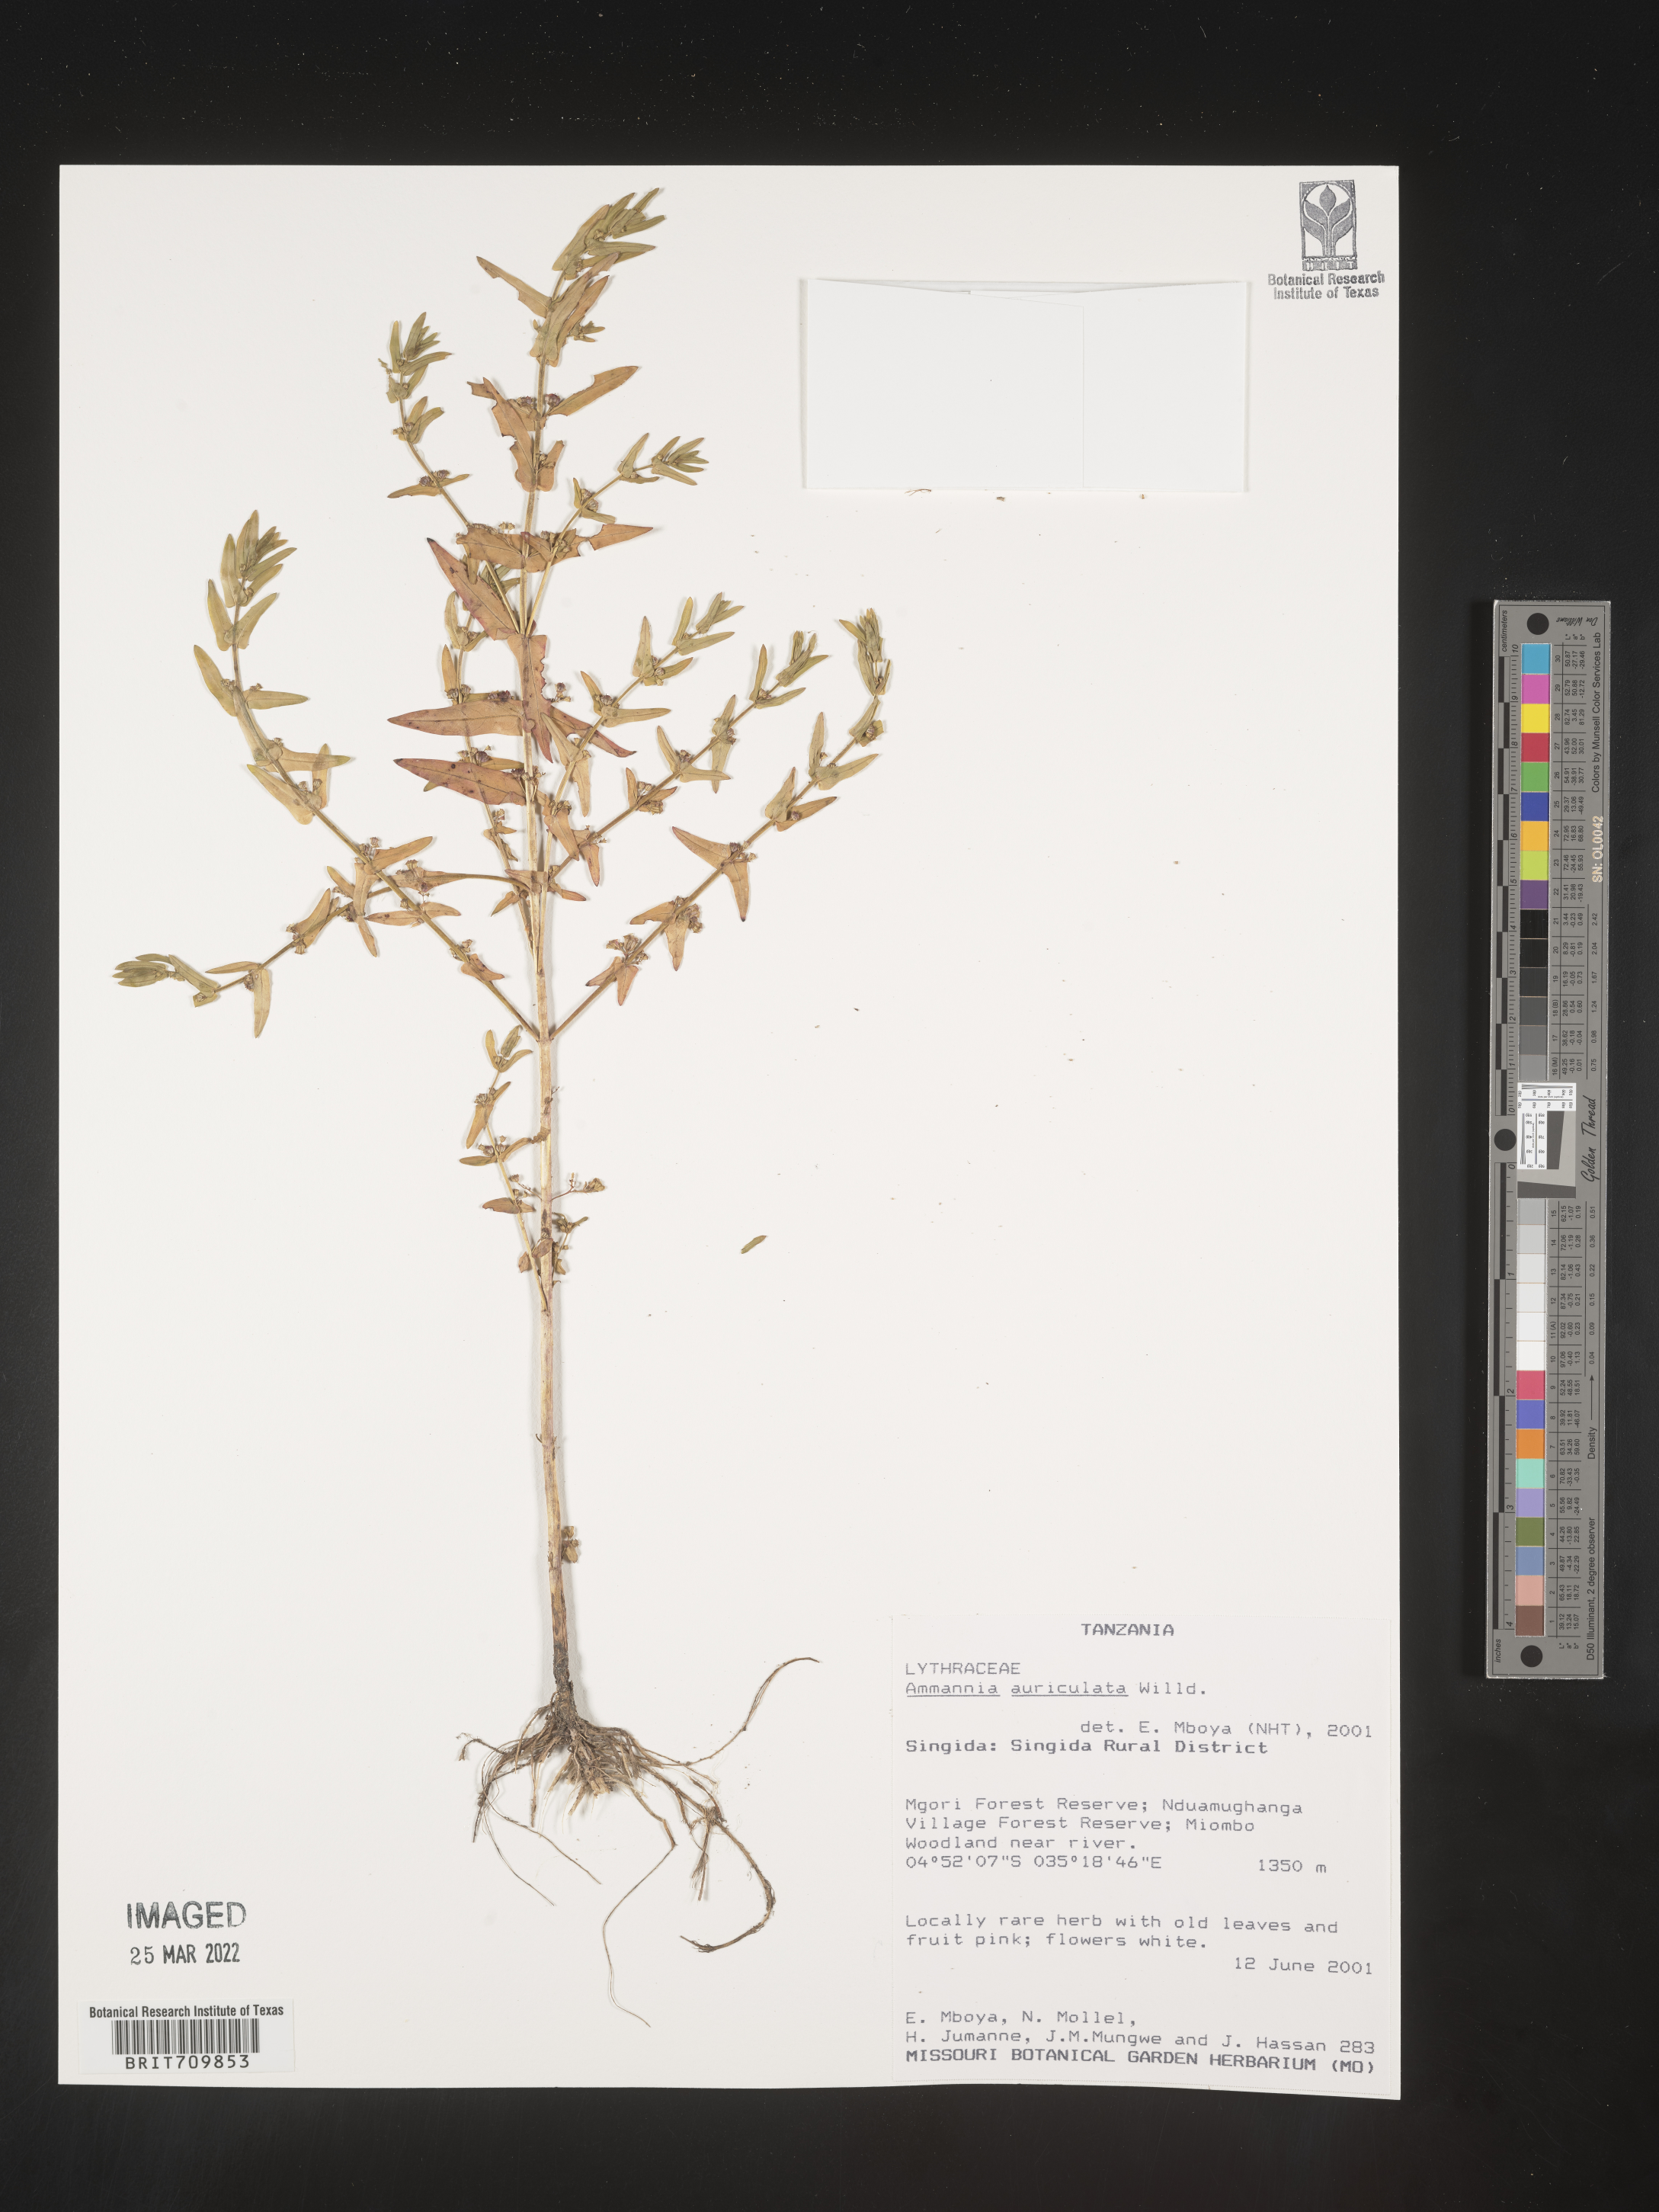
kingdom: Plantae
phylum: Tracheophyta
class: Magnoliopsida
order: Myrtales
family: Lythraceae
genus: Ammannia
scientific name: Ammannia
